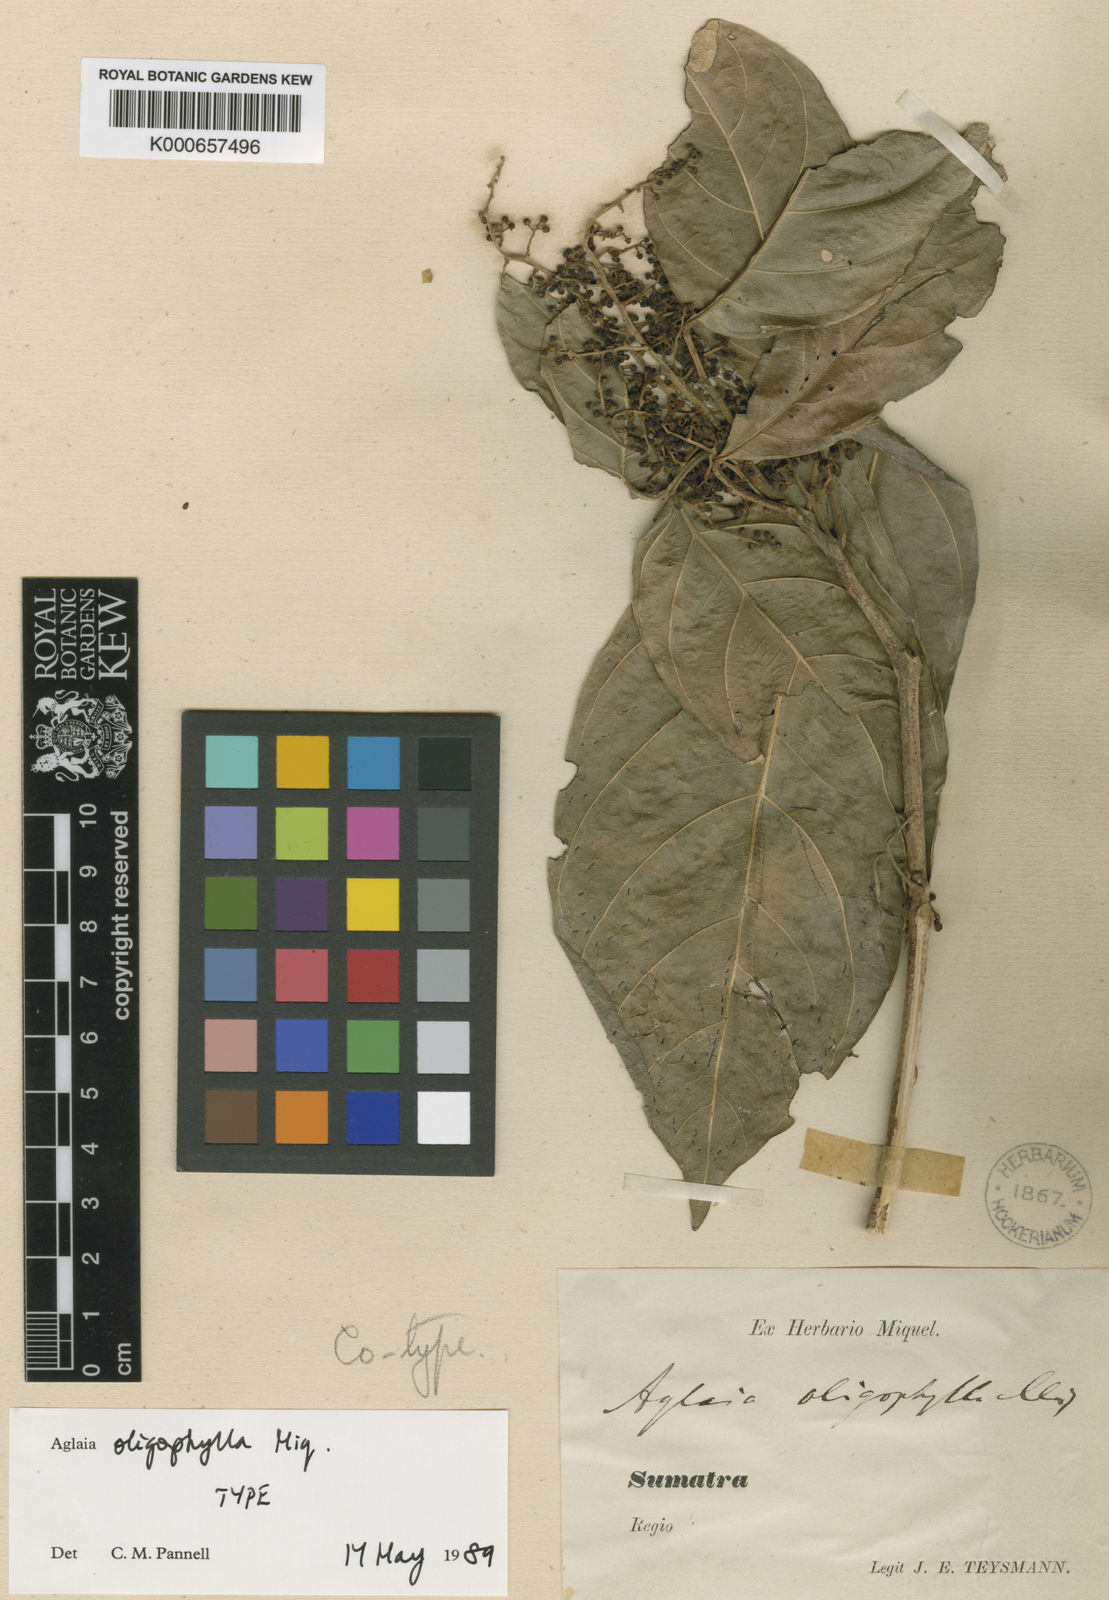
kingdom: Plantae
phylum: Tracheophyta
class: Magnoliopsida
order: Sapindales
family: Meliaceae
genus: Aglaia
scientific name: Aglaia oligophylla
